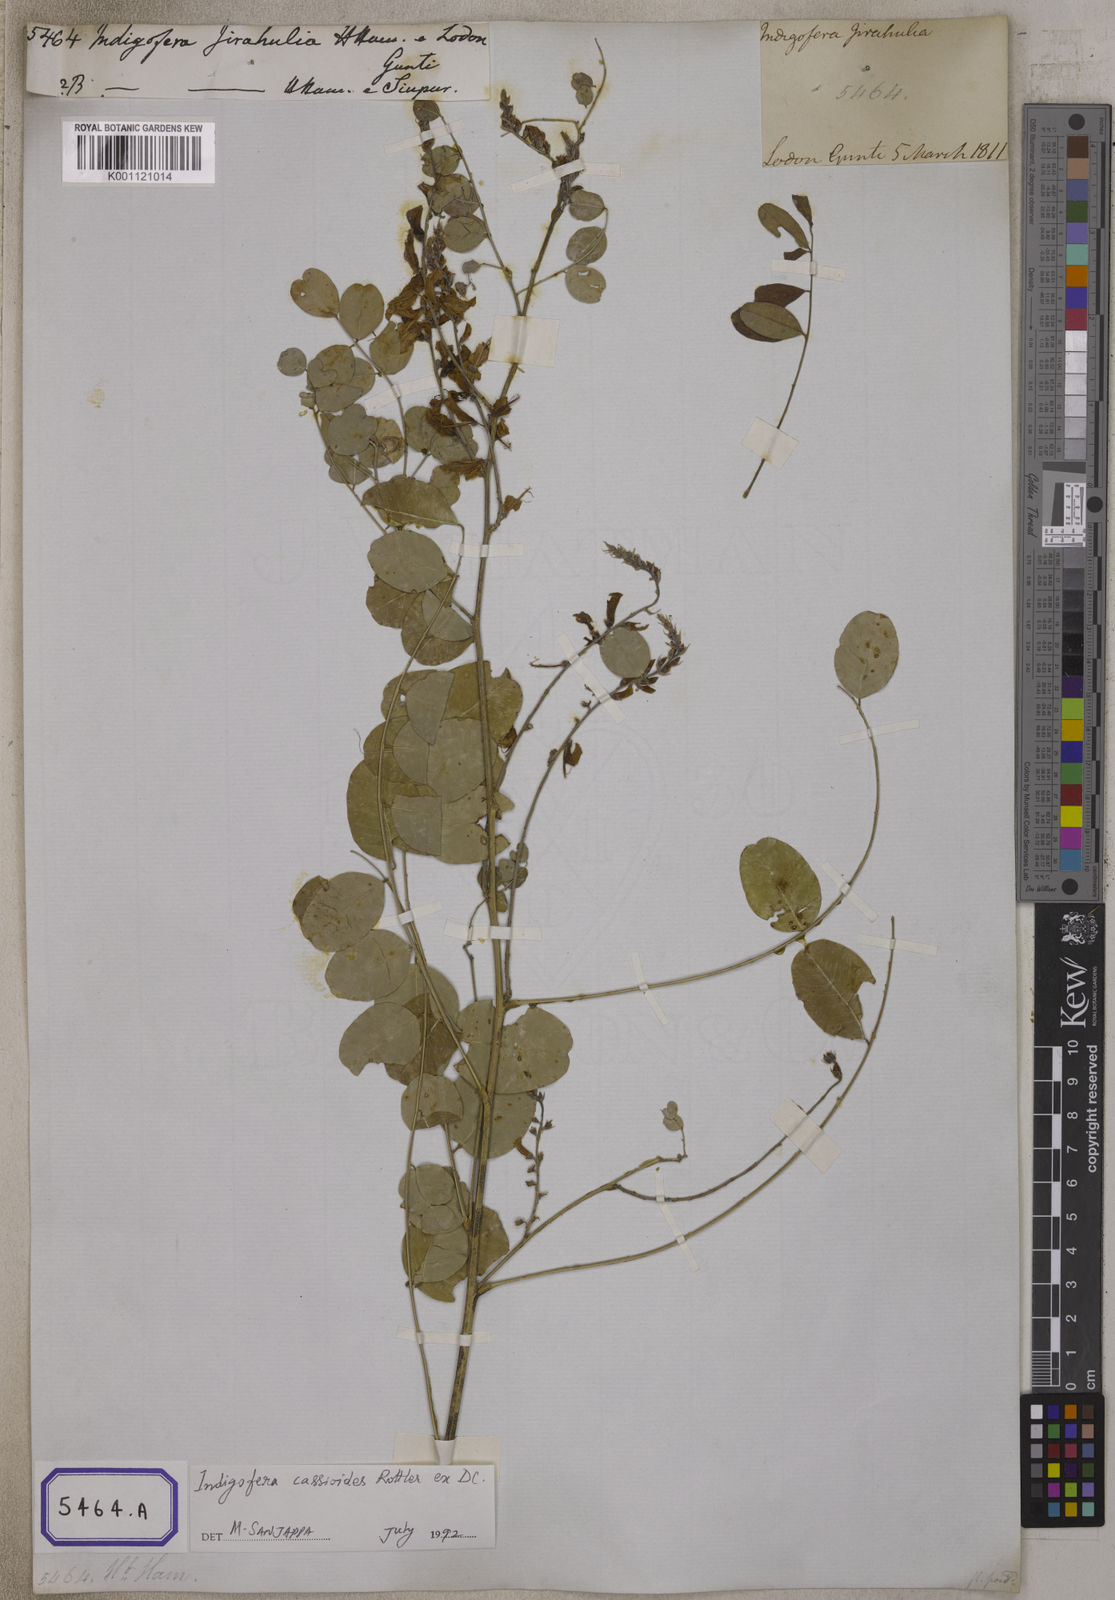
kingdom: Plantae
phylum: Tracheophyta
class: Magnoliopsida
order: Fabales
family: Fabaceae
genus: Indigofera
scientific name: Indigofera cassioides
